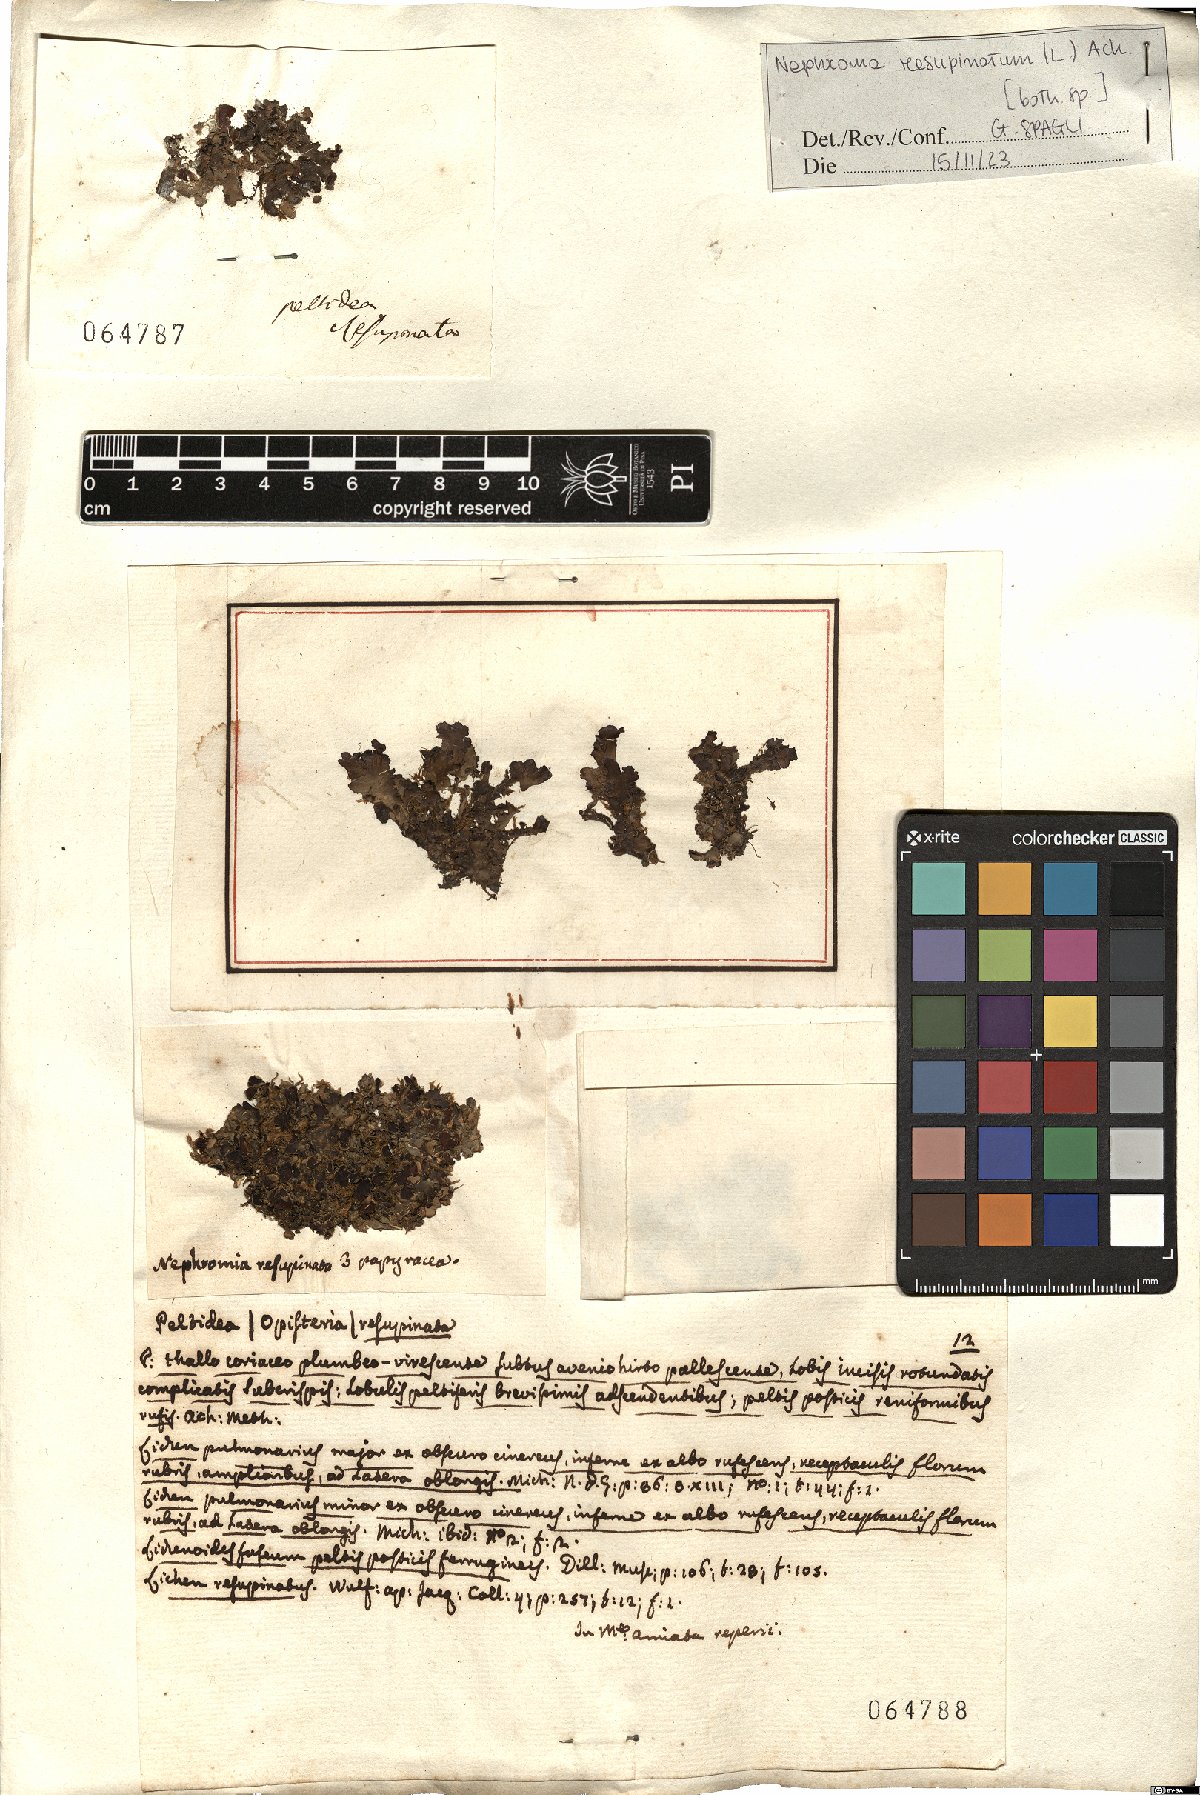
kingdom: Fungi
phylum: Ascomycota
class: Lecanoromycetes
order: Peltigerales
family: Nephromataceae
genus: Nephroma
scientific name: Nephroma resupinatum
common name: Pimpled kidney lichen
